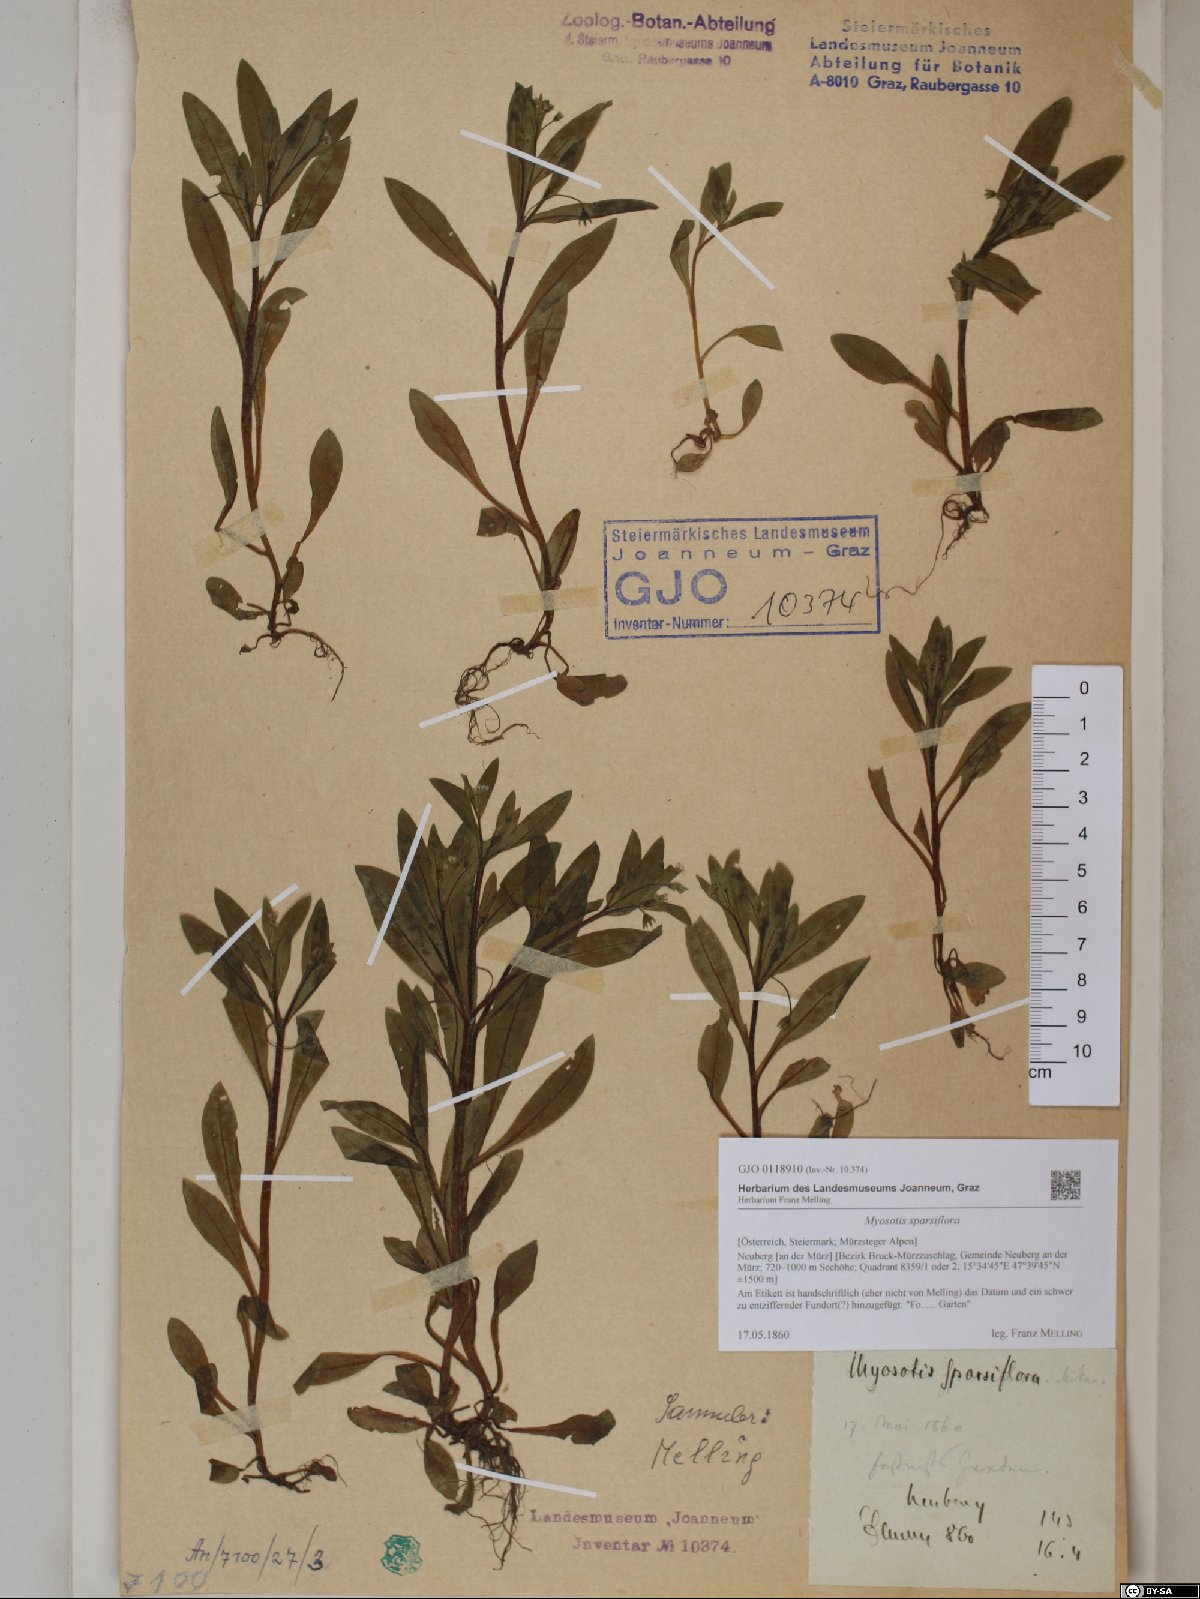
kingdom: Plantae
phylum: Tracheophyta
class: Magnoliopsida
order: Boraginales
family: Boraginaceae
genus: Myosotis
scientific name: Myosotis sparsiflora
